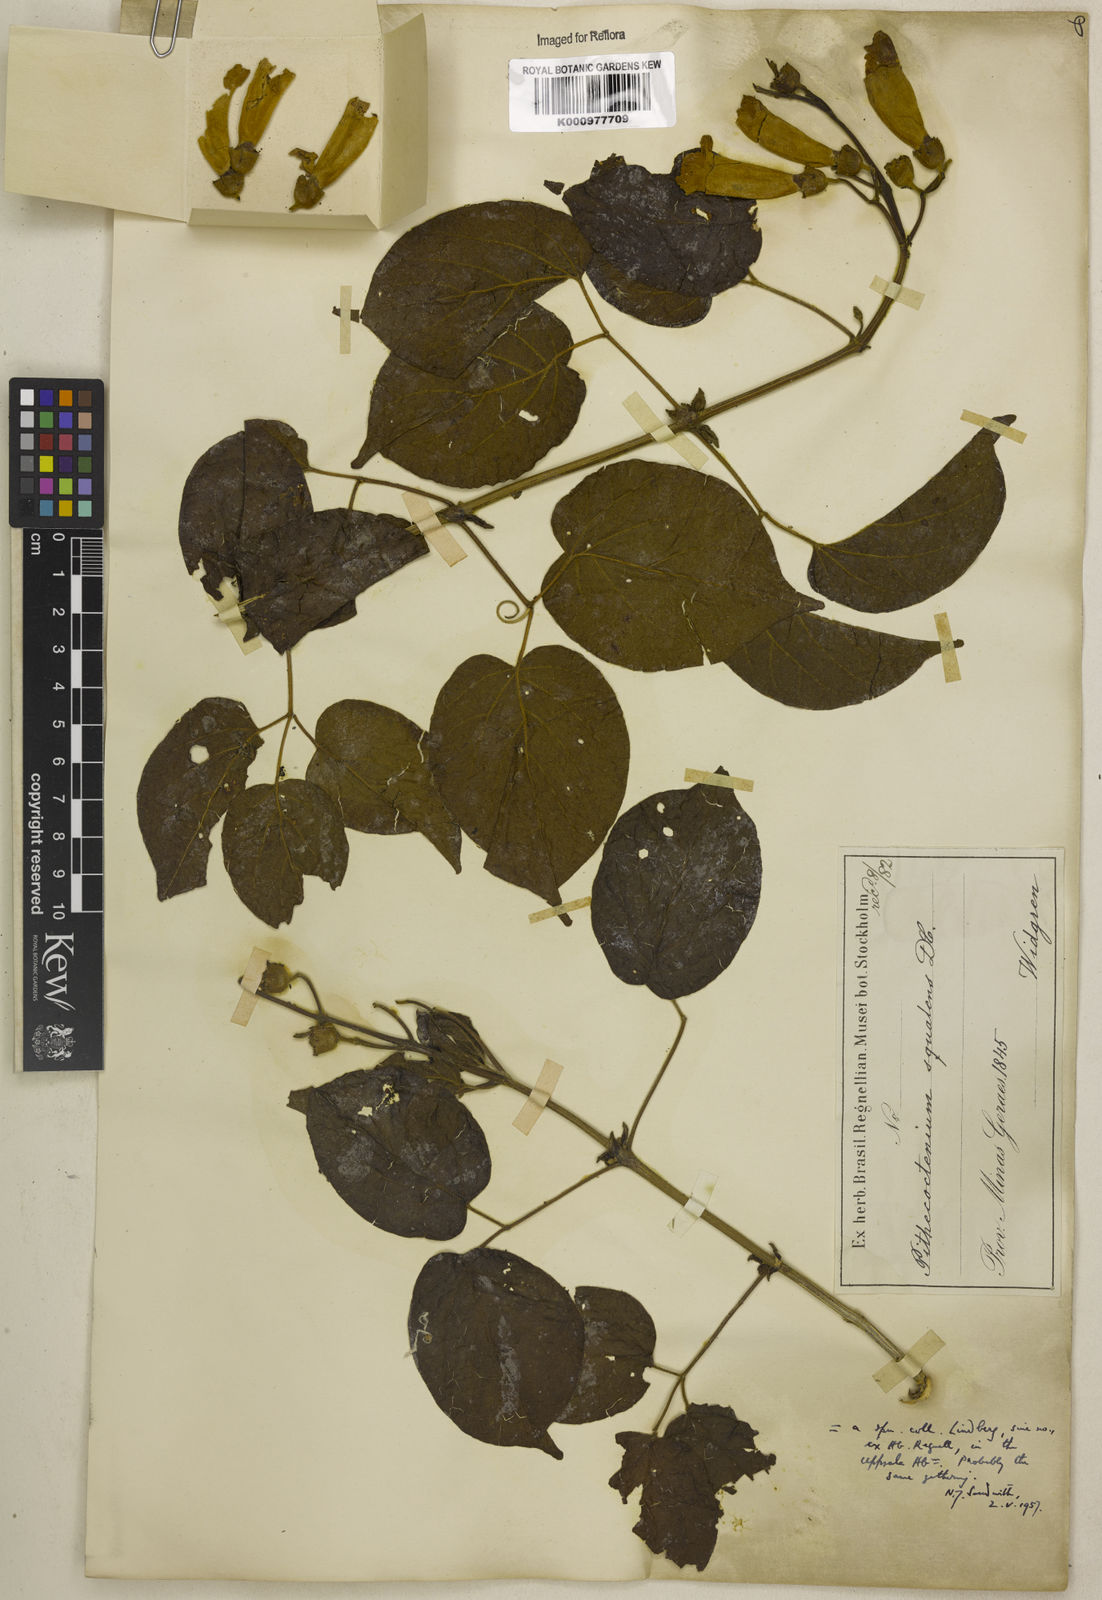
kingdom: Plantae
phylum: Tracheophyta
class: Magnoliopsida
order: Lamiales
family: Bignoniaceae
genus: Amphilophium
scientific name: Amphilophium crucigerum
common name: Monkey comb
